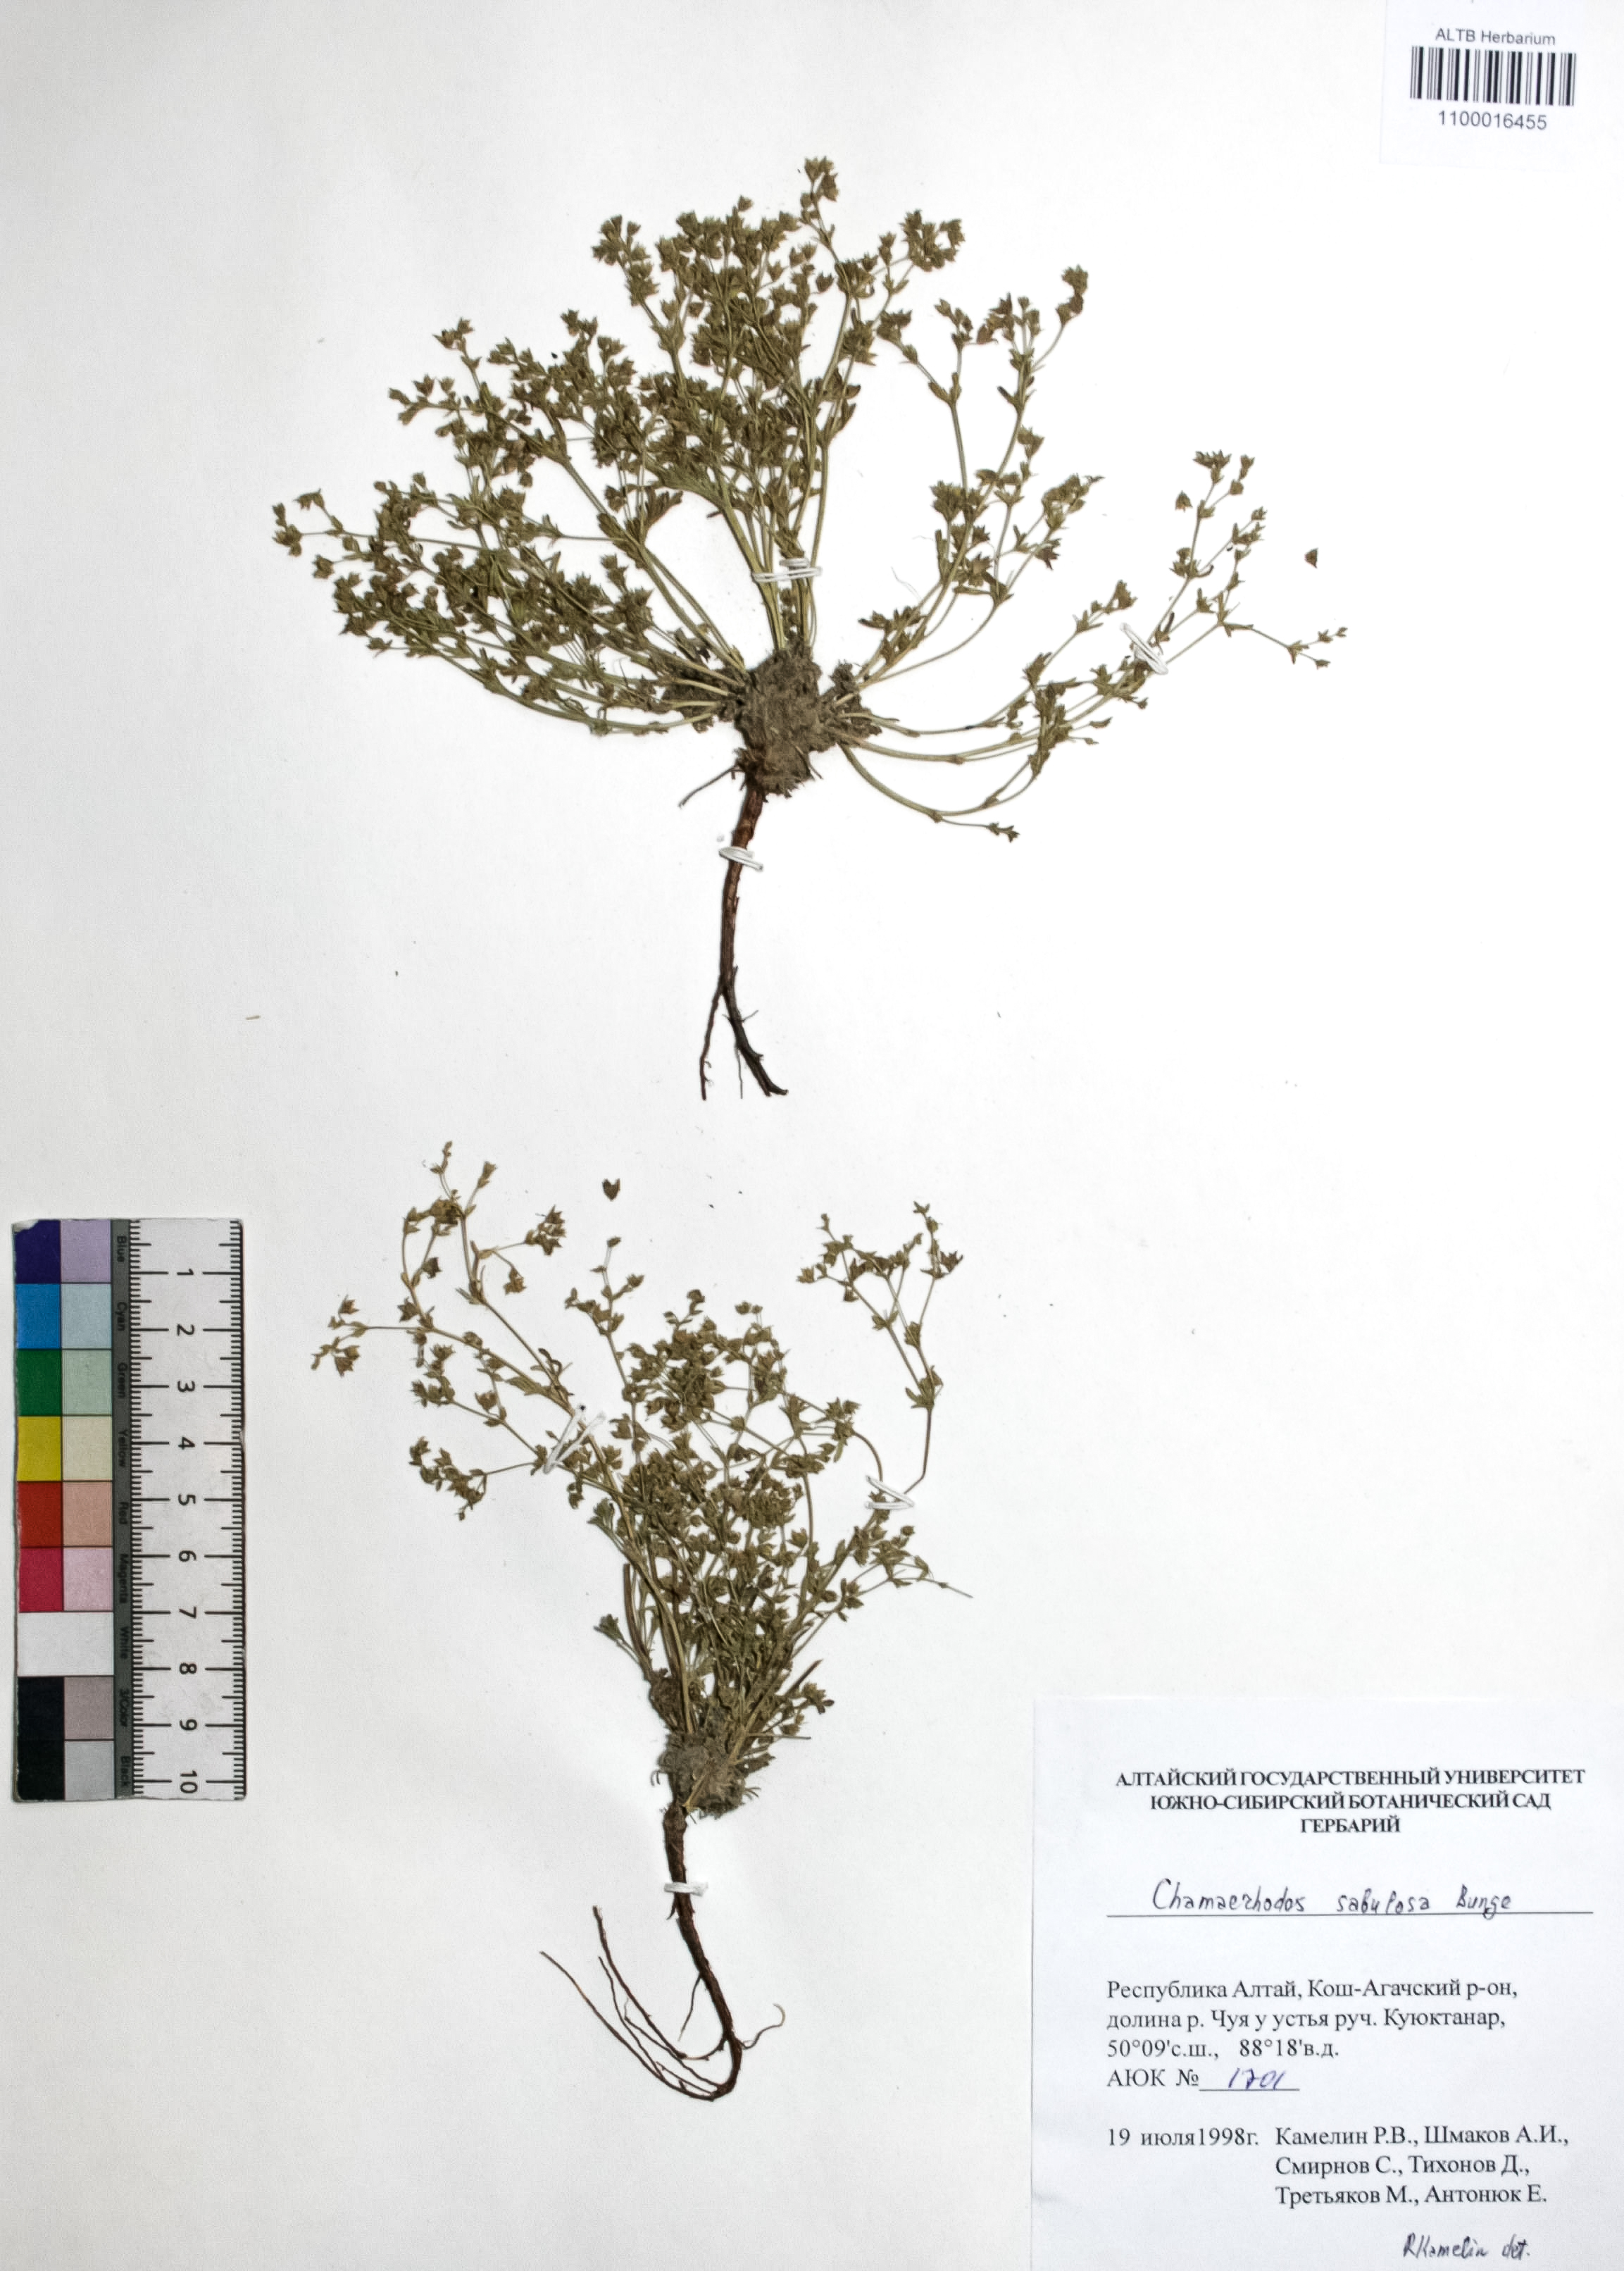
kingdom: Plantae
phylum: Tracheophyta
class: Magnoliopsida
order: Rosales
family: Rosaceae
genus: Chamaerhodos
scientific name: Chamaerhodos sabulosa
